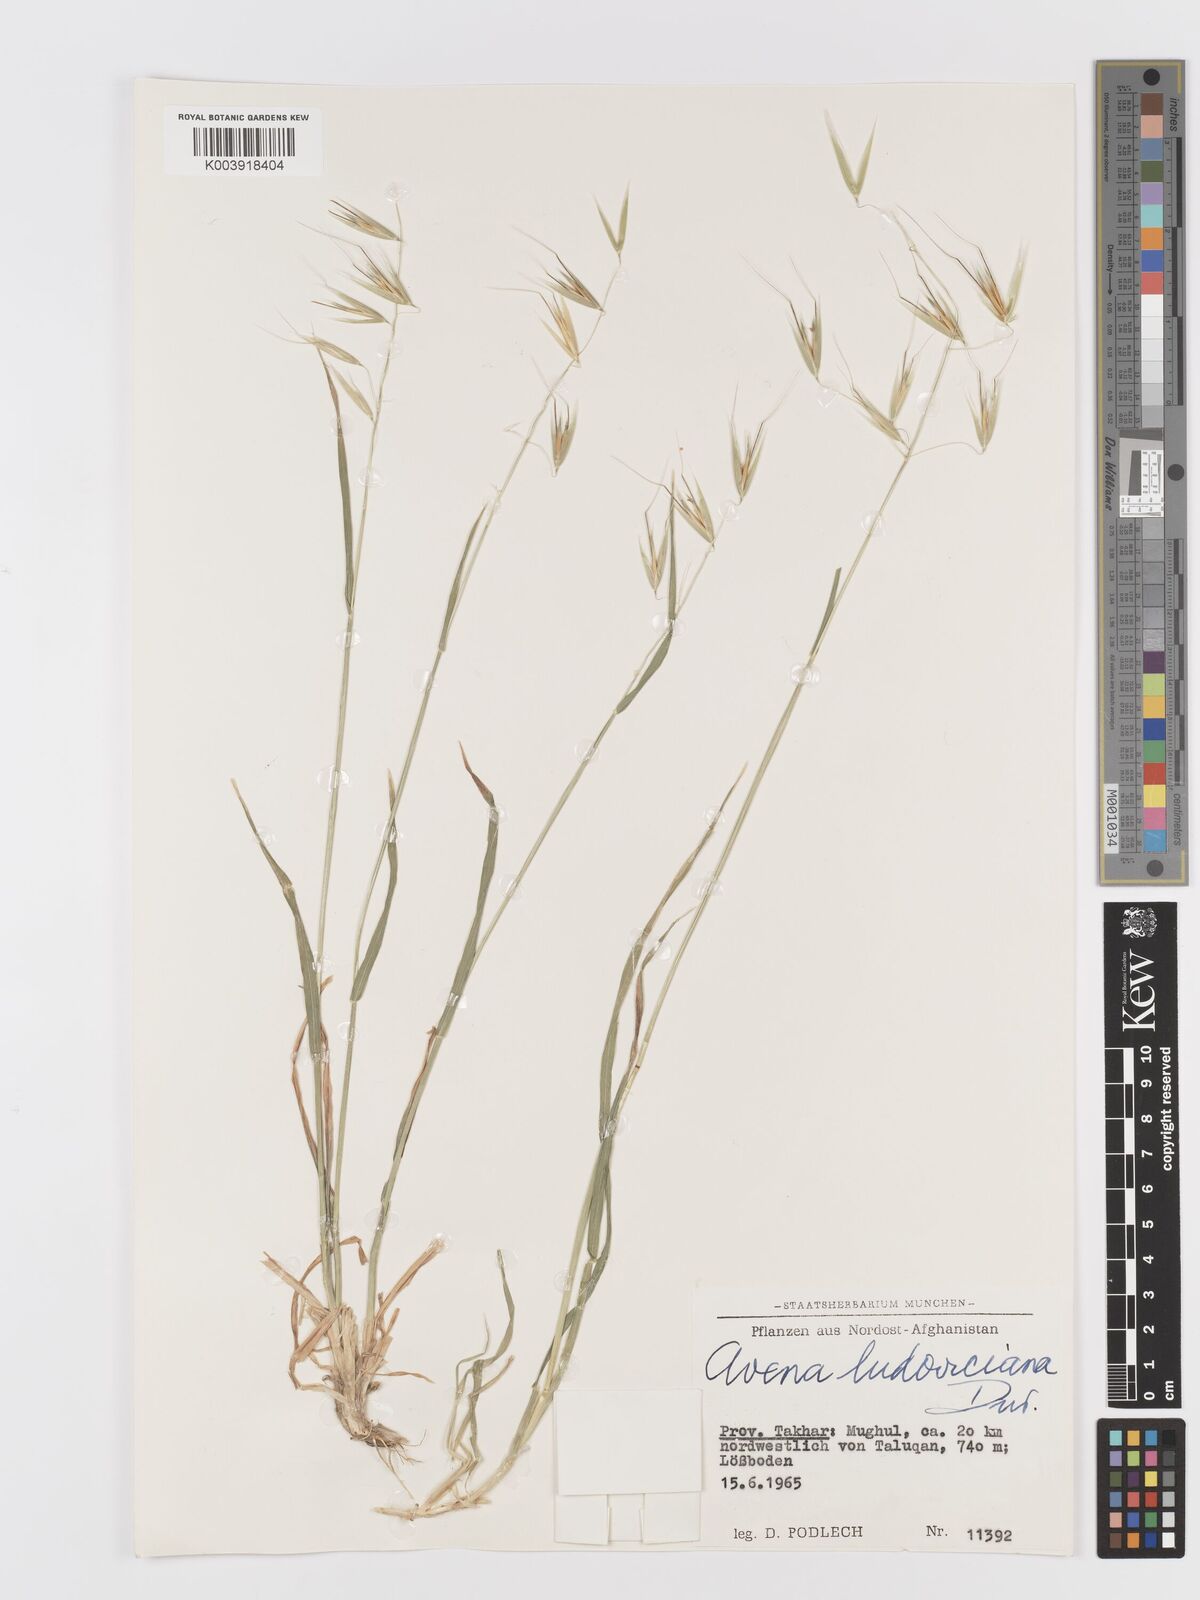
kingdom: Plantae
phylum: Tracheophyta
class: Liliopsida
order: Poales
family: Poaceae
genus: Avena
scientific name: Avena sterilis
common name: Animated oat
